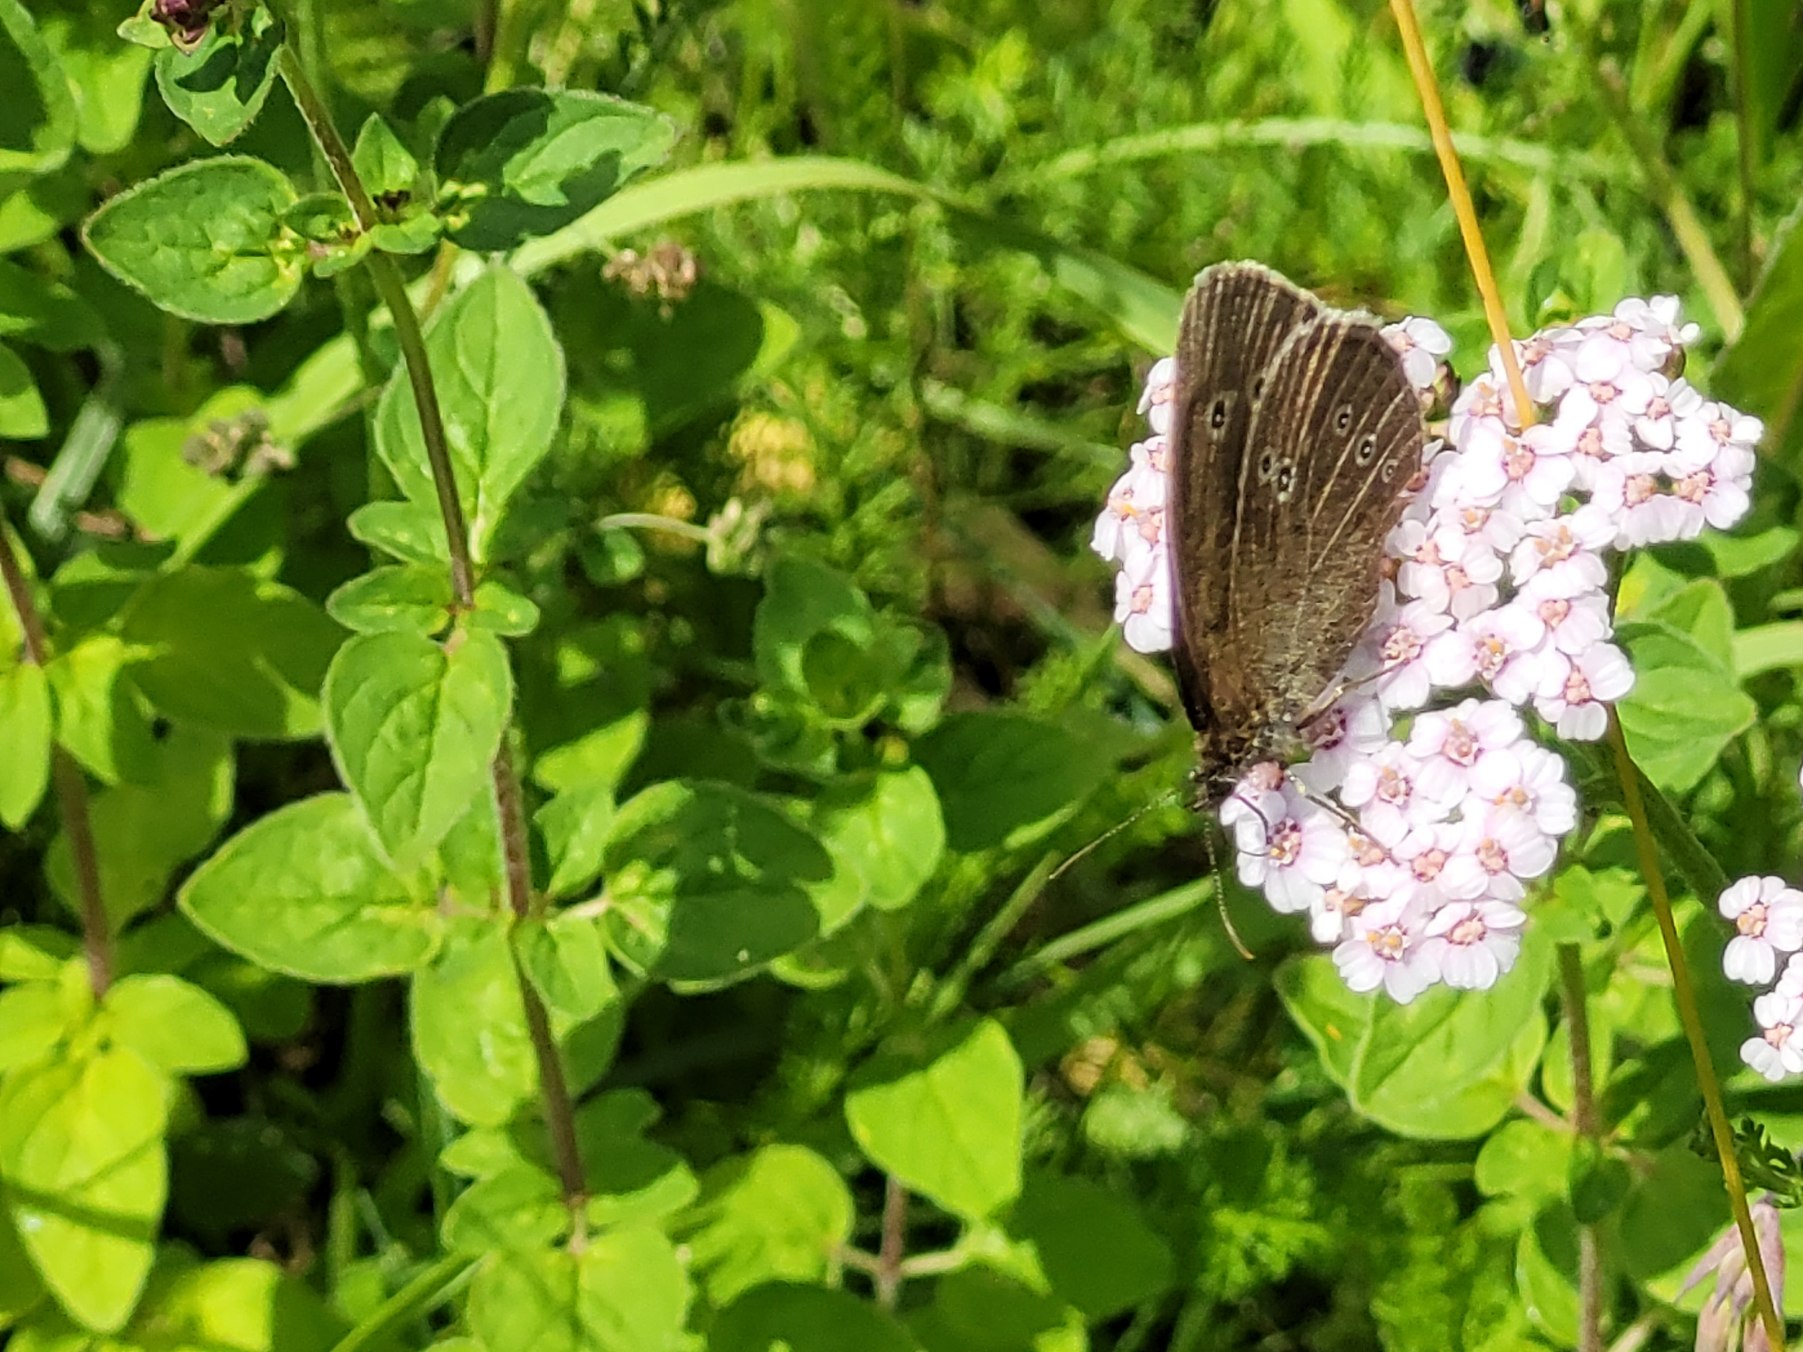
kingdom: Animalia
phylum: Arthropoda
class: Insecta
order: Lepidoptera
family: Nymphalidae
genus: Aphantopus
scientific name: Aphantopus hyperantus
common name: Engrandøje
